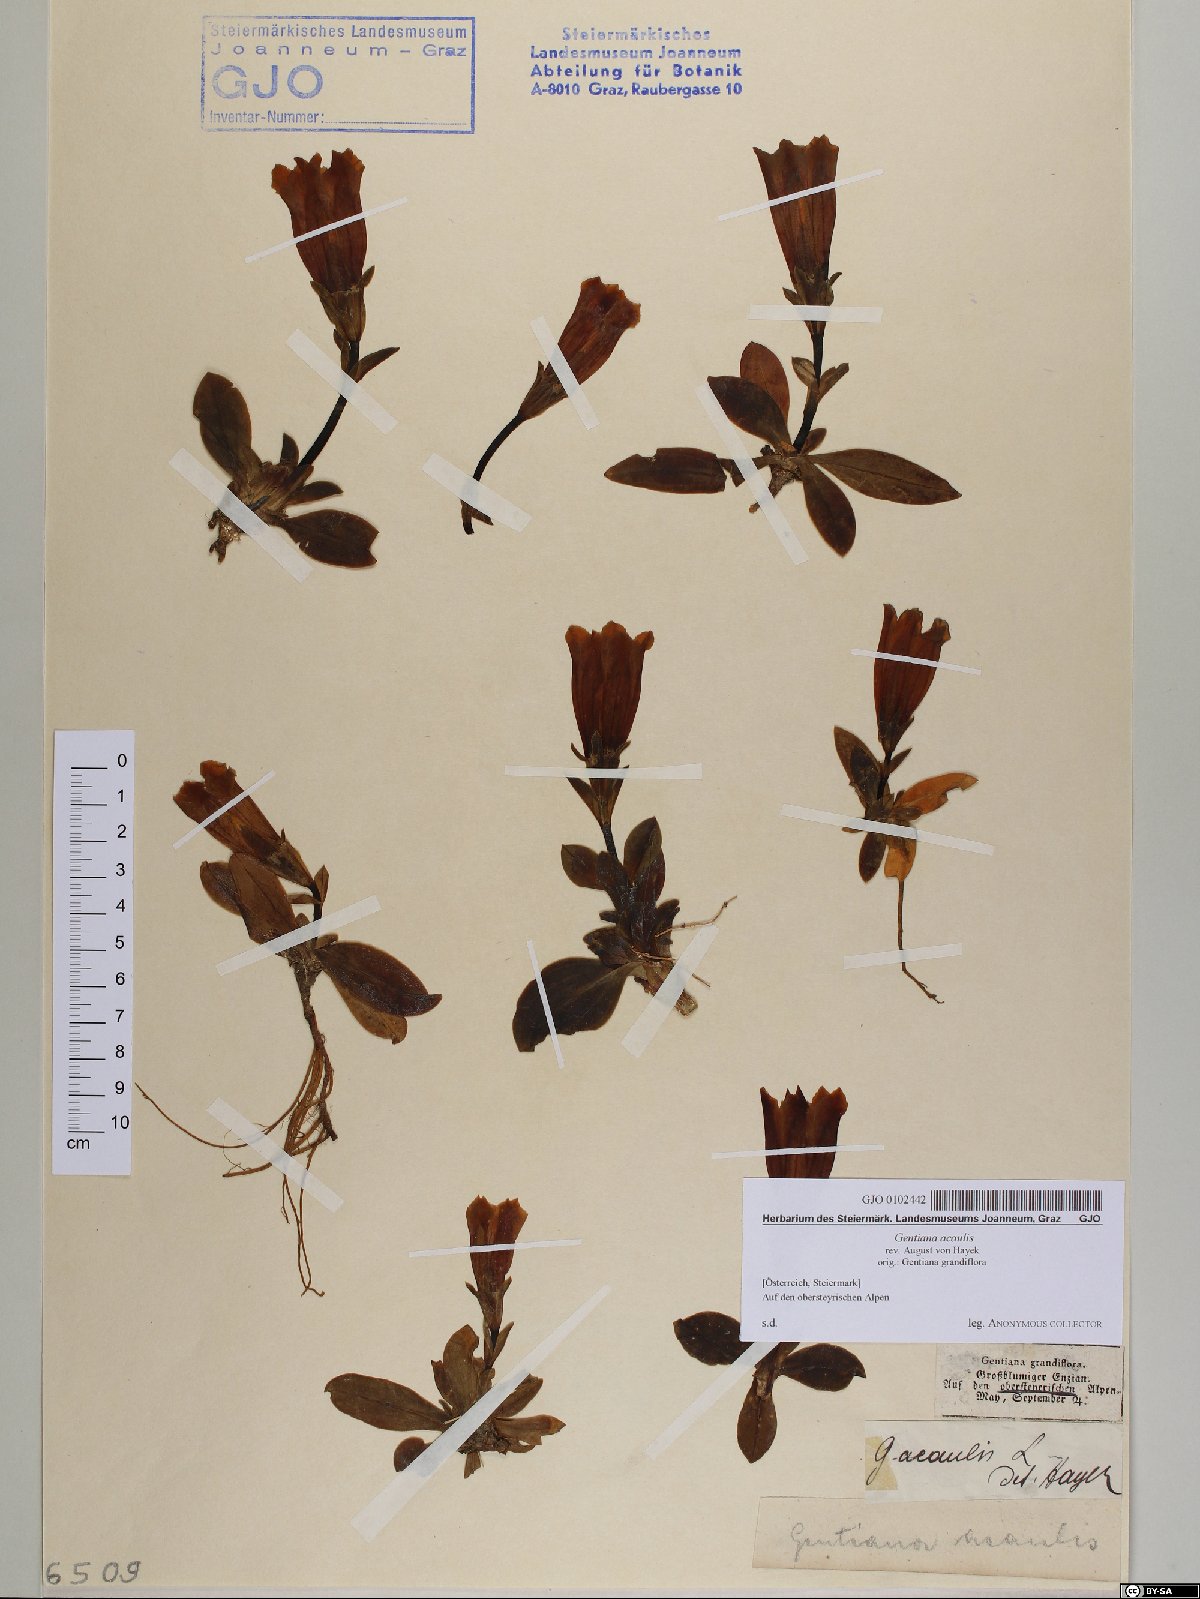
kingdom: Plantae
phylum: Tracheophyta
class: Magnoliopsida
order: Gentianales
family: Gentianaceae
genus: Gentiana
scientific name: Gentiana acaulis
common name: Trumpet gentian
